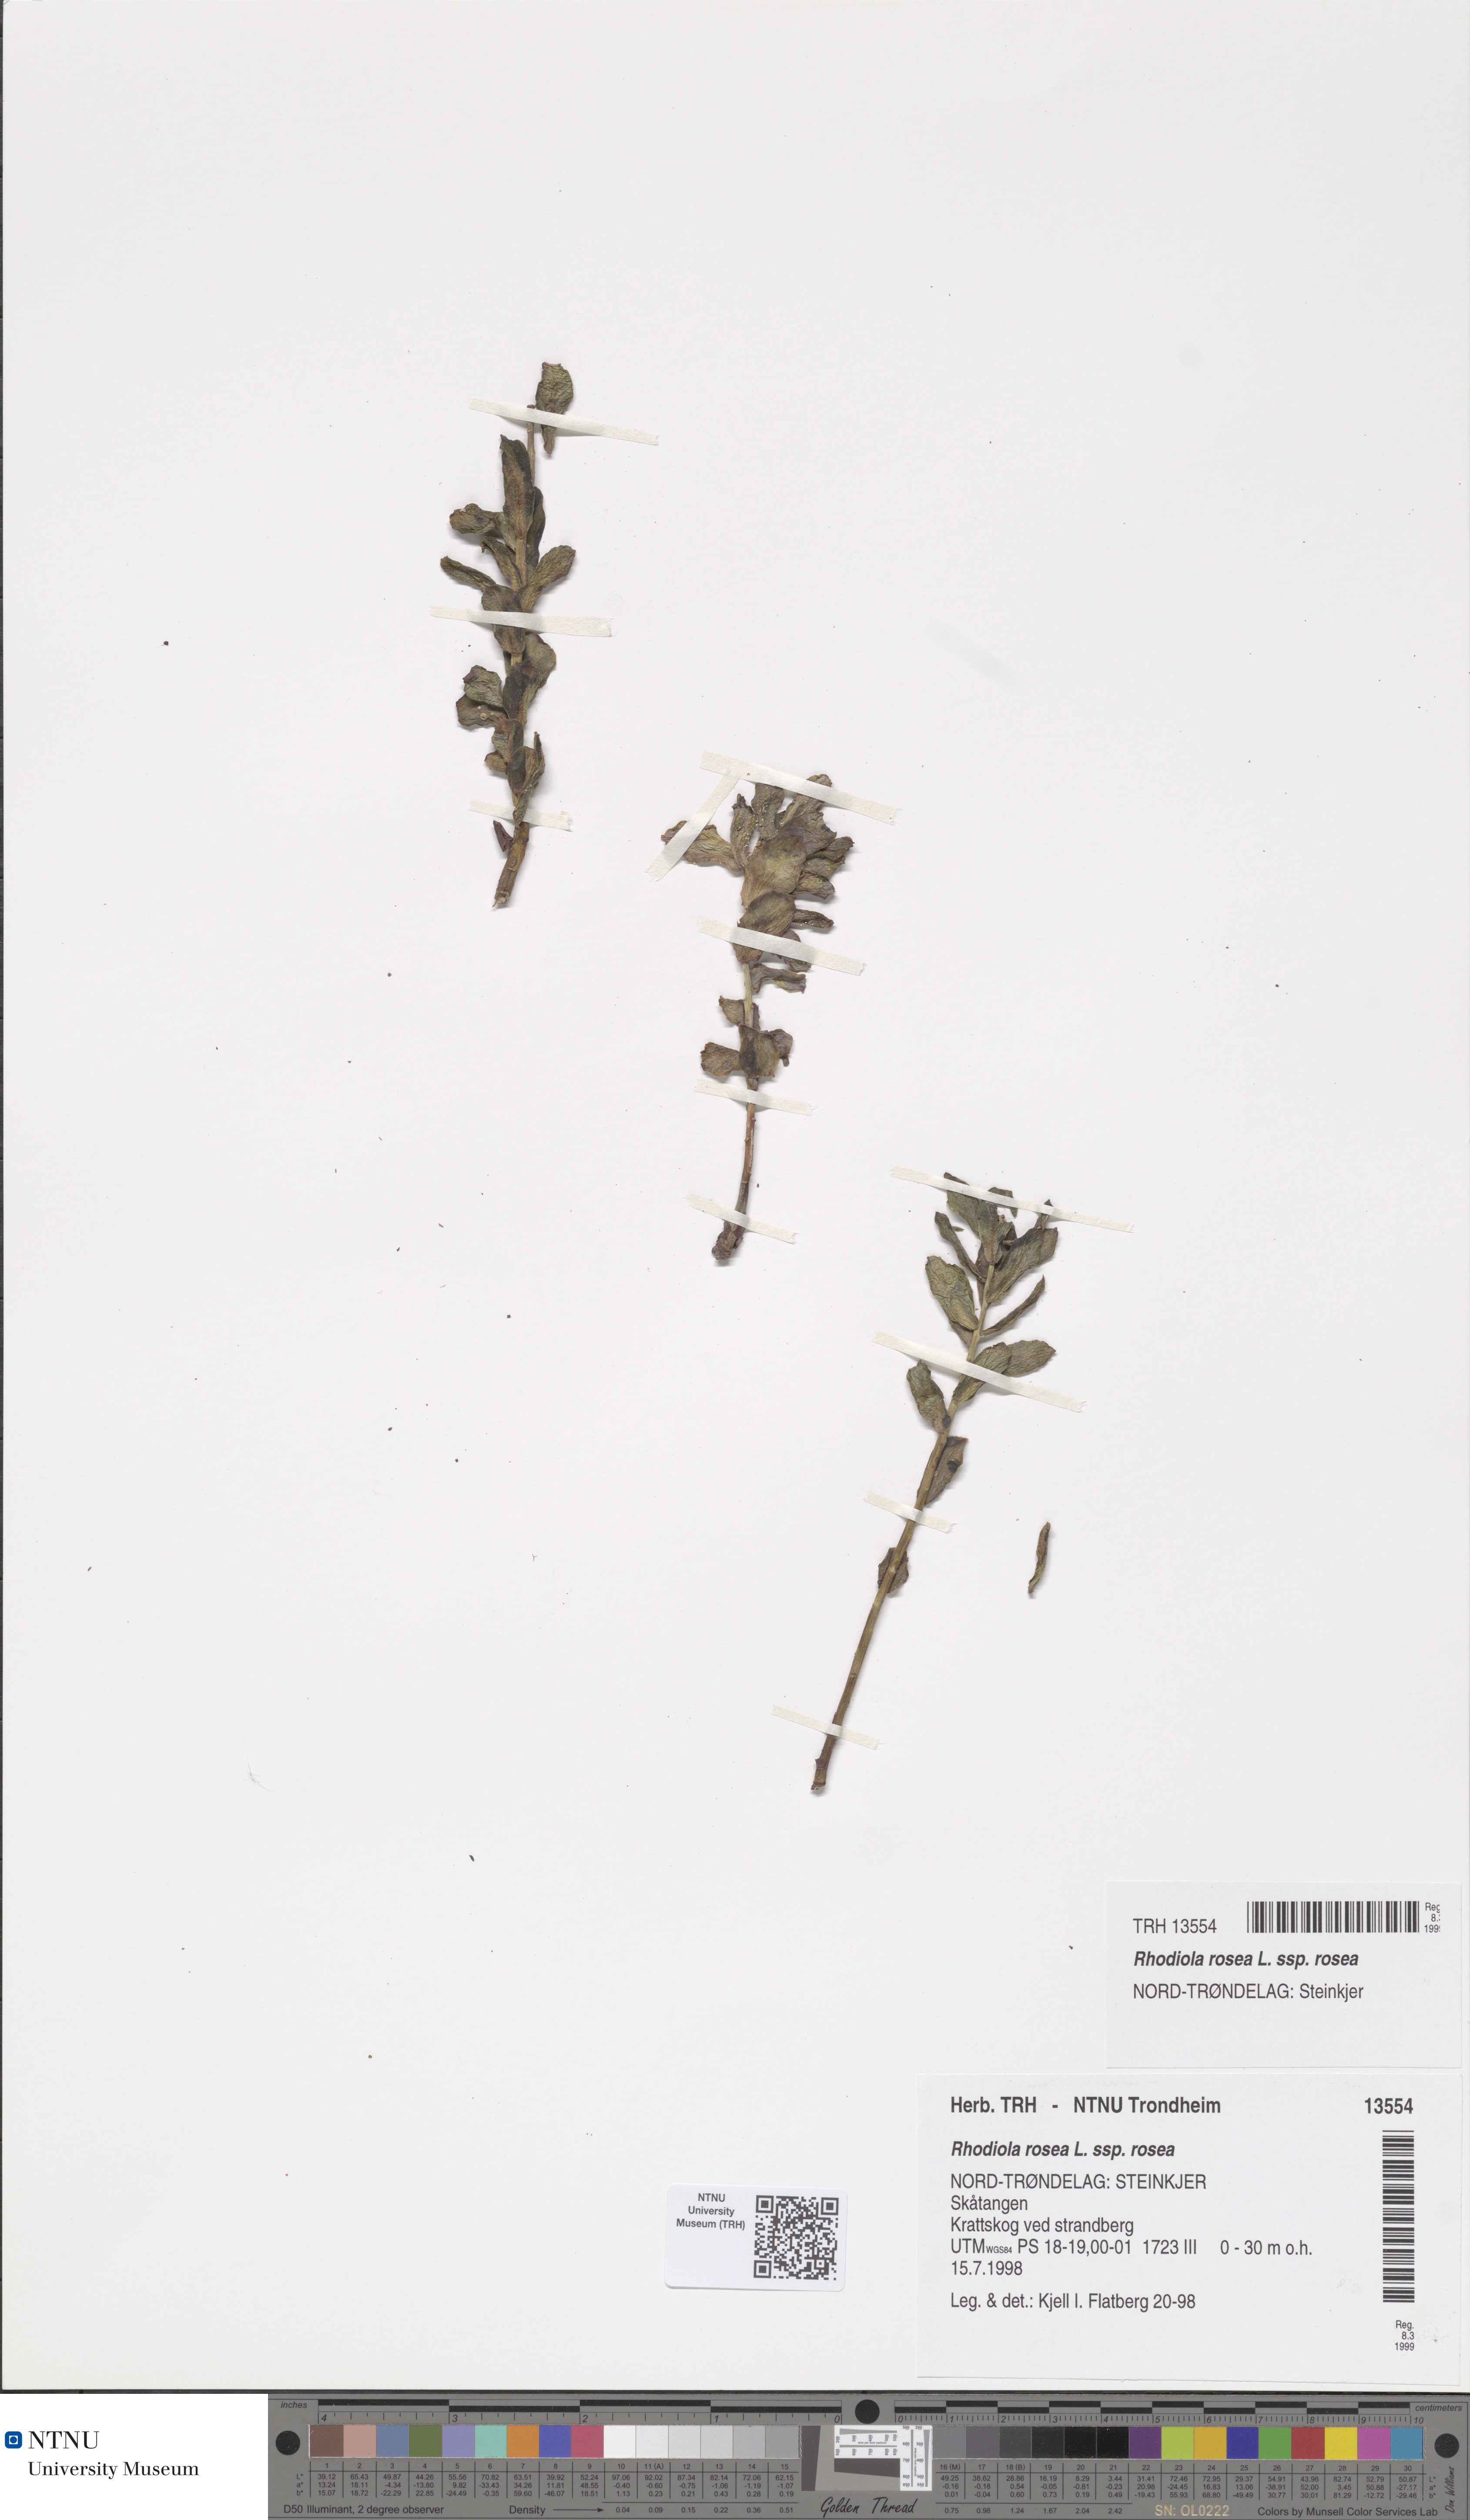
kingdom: Plantae
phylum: Tracheophyta
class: Magnoliopsida
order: Saxifragales
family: Crassulaceae
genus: Rhodiola
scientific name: Rhodiola rosea
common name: Roseroot
